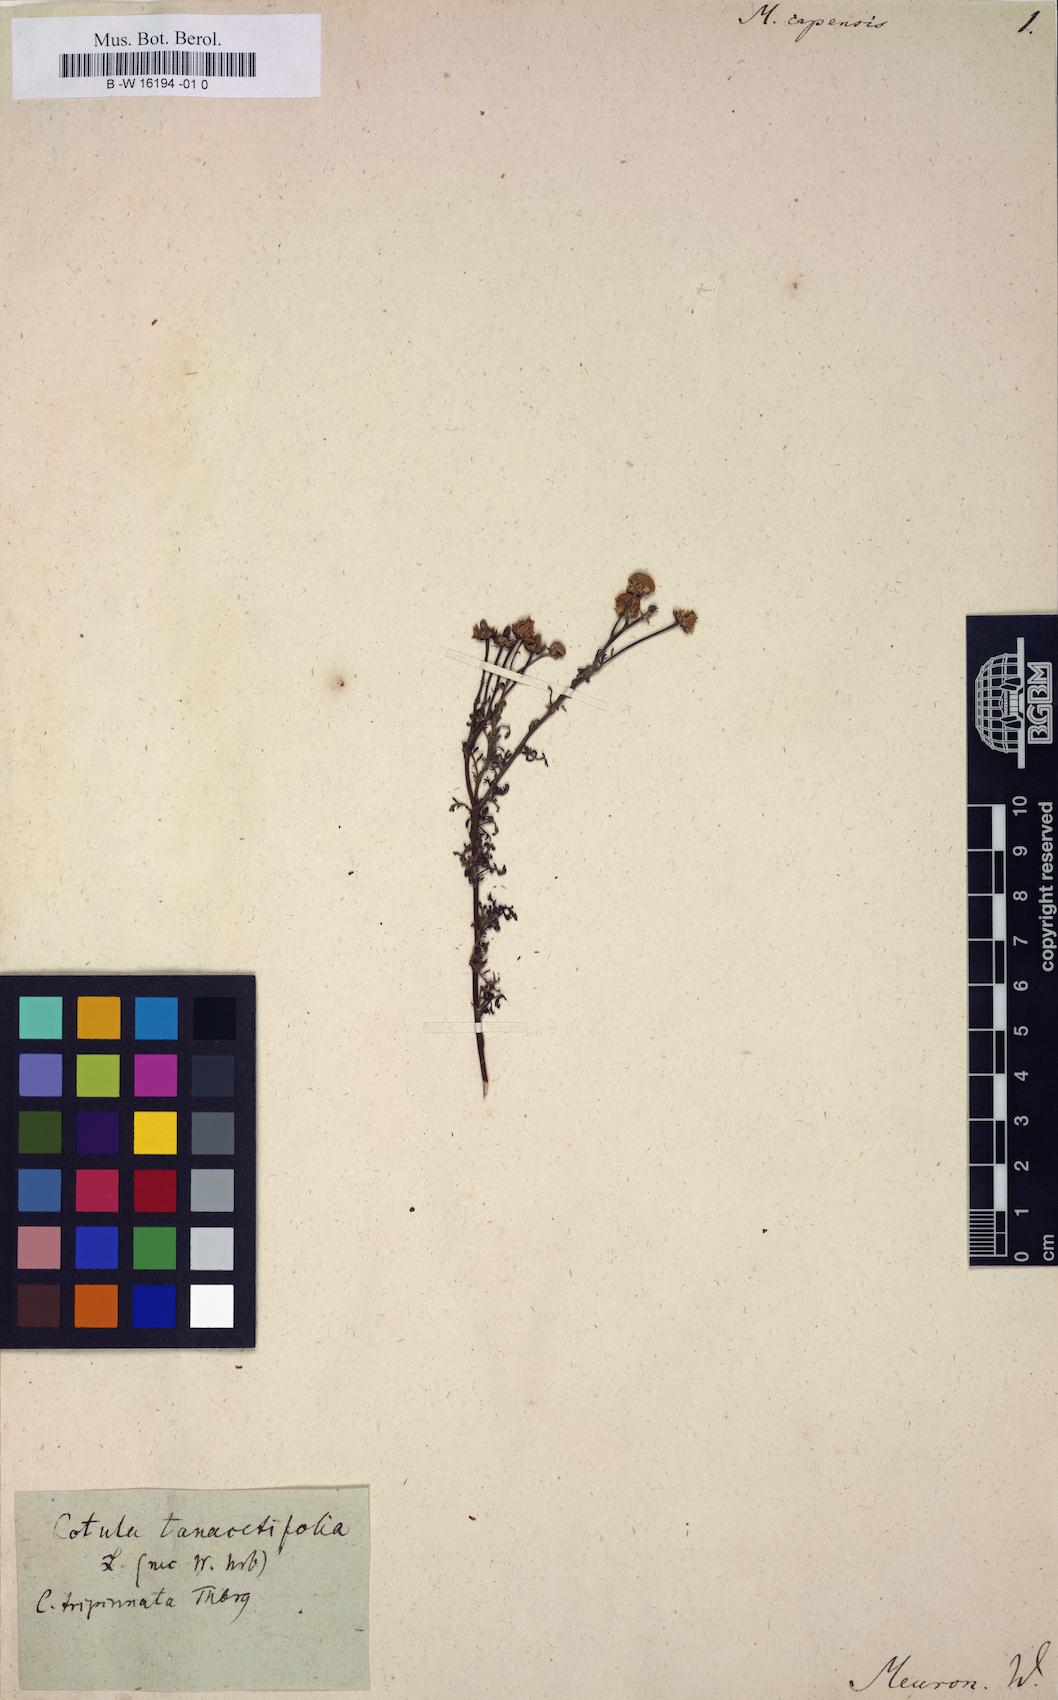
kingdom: Plantae
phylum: Tracheophyta
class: Magnoliopsida
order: Asterales
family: Asteraceae
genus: Matricaria
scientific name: Matricaria capensis
